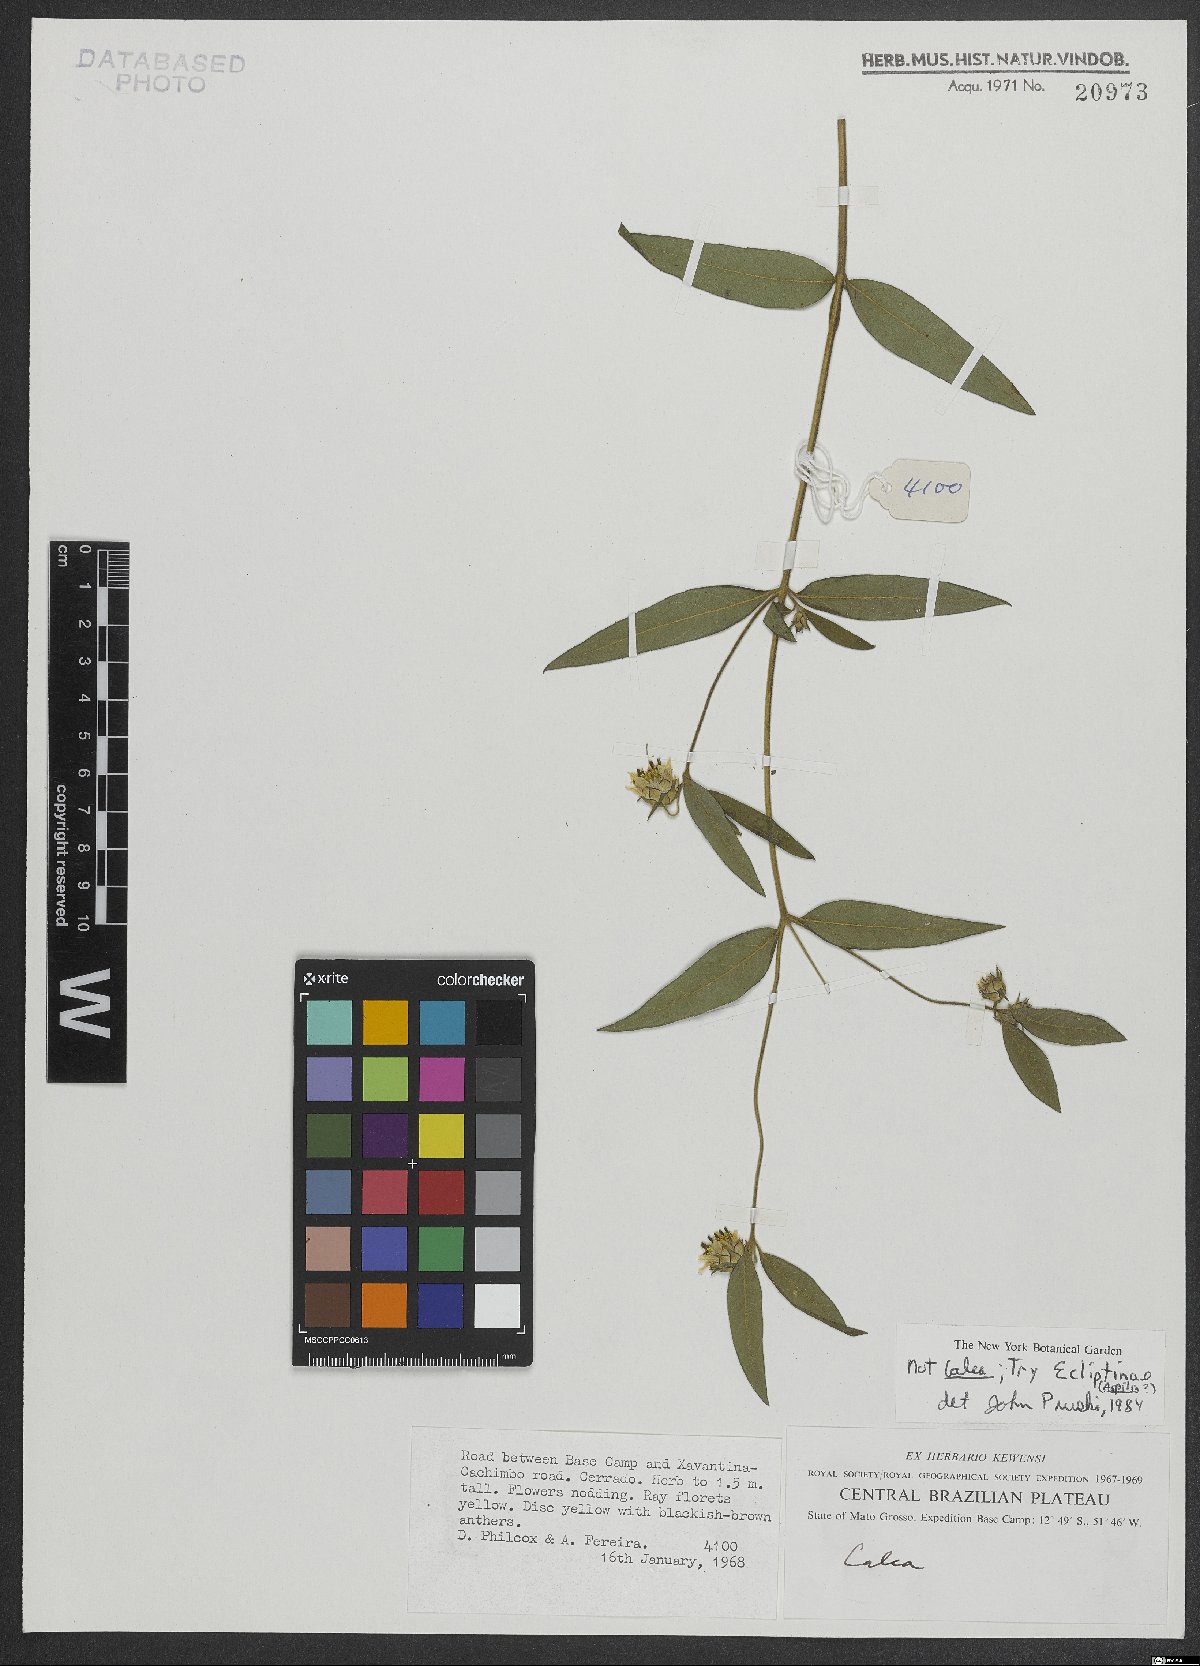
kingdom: Plantae
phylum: Tracheophyta
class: Magnoliopsida
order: Asterales
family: Asteraceae
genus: Eclipta
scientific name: Eclipta
